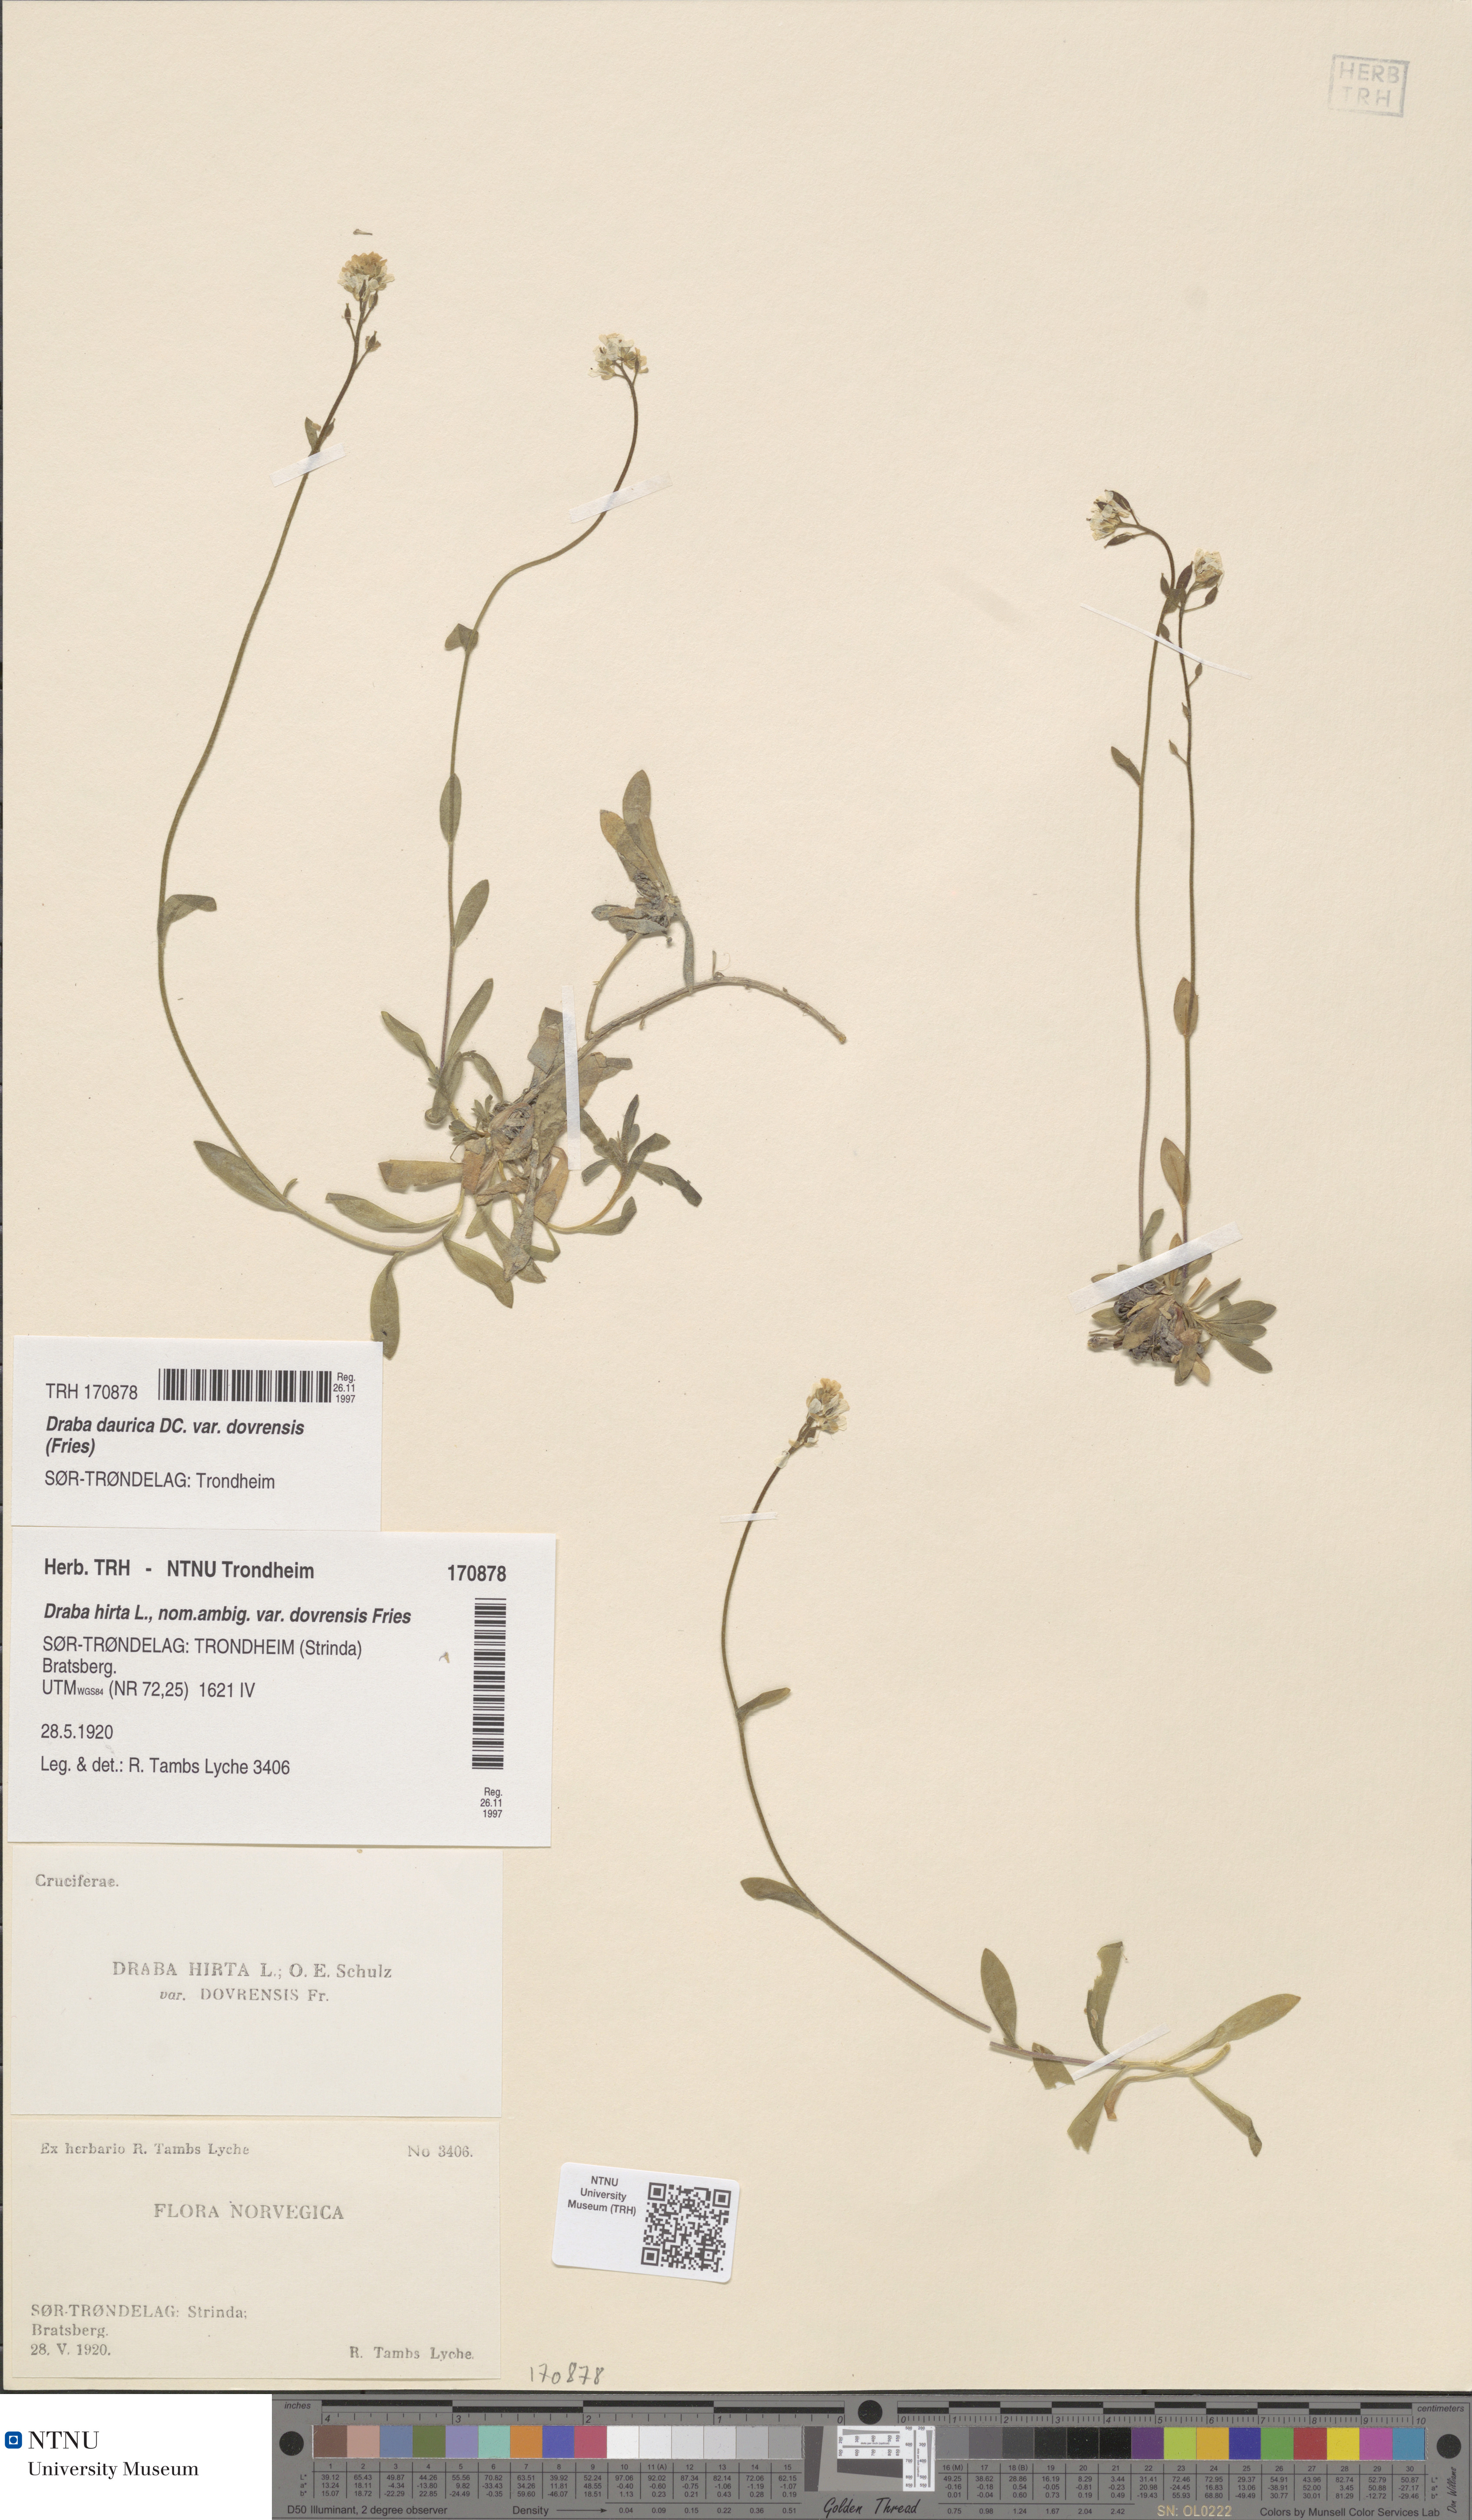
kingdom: Plantae
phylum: Tracheophyta
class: Magnoliopsida
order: Brassicales
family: Brassicaceae
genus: Draba
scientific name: Draba glabella
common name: Glaucous draba
